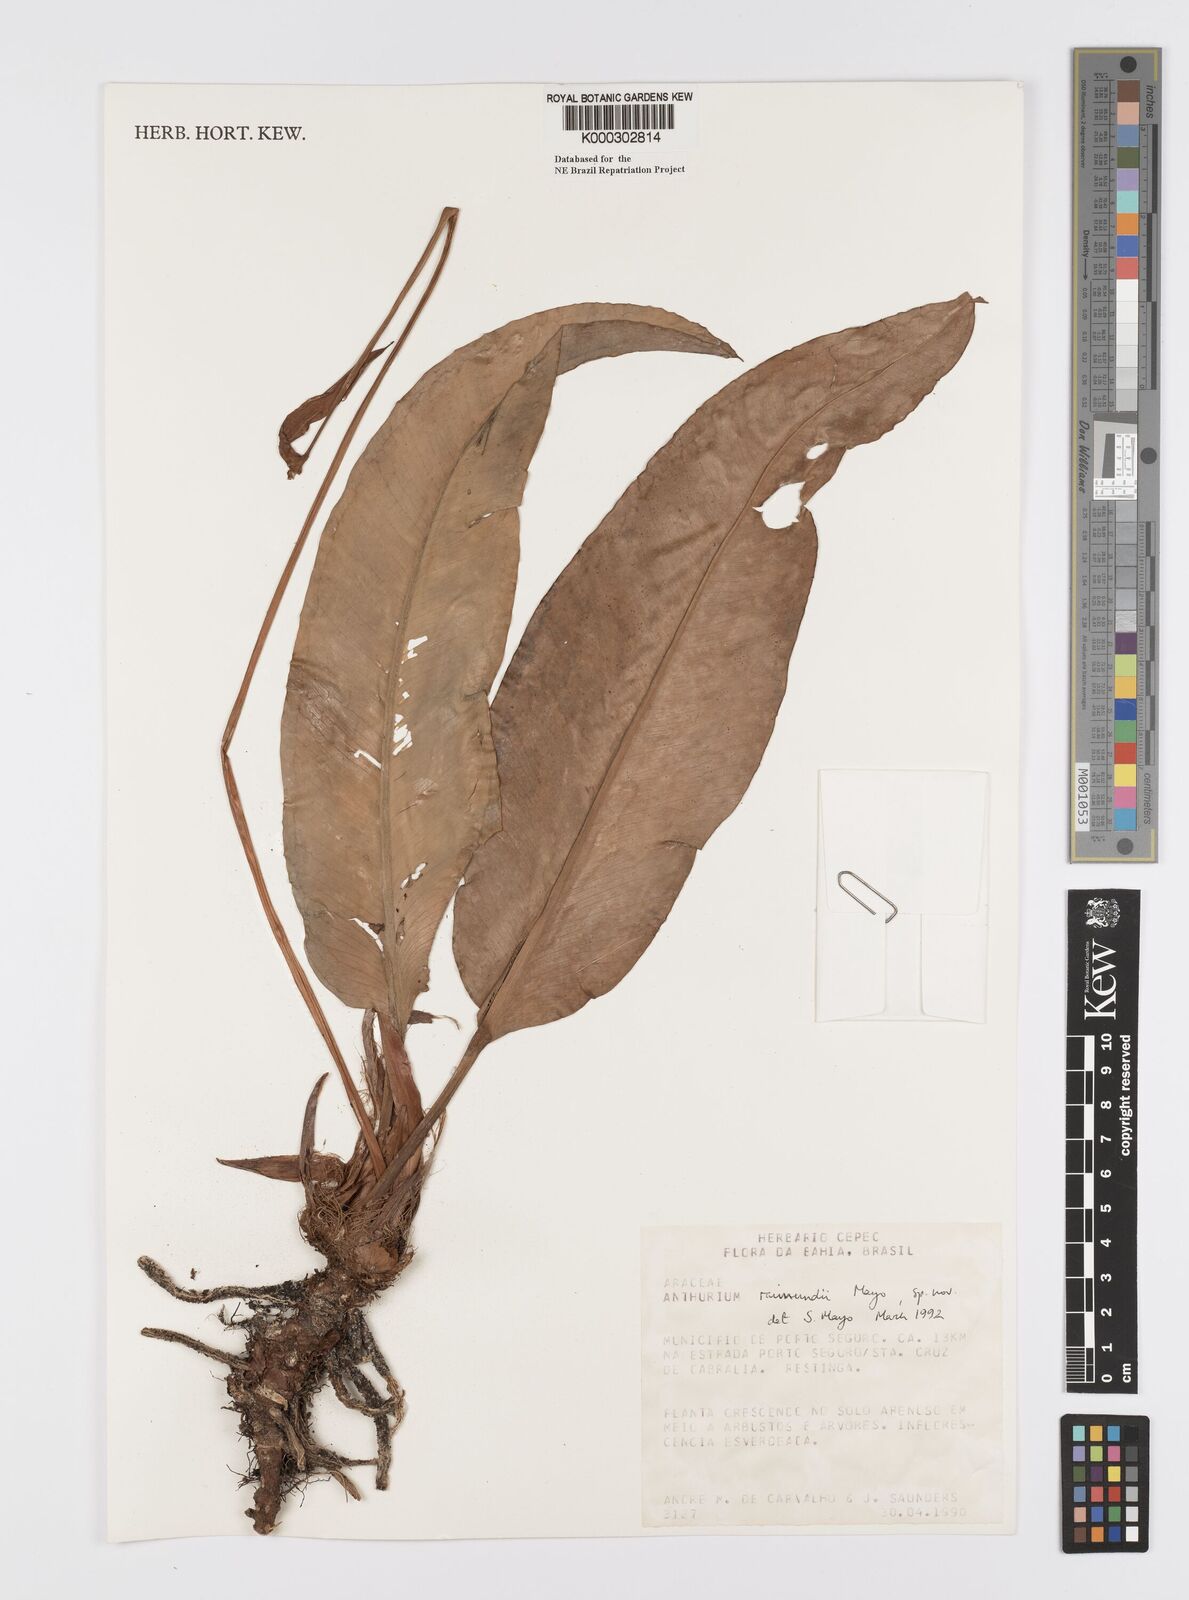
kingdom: Plantae
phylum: Tracheophyta
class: Liliopsida
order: Alismatales
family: Araceae
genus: Anthurium
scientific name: Anthurium raimundii
